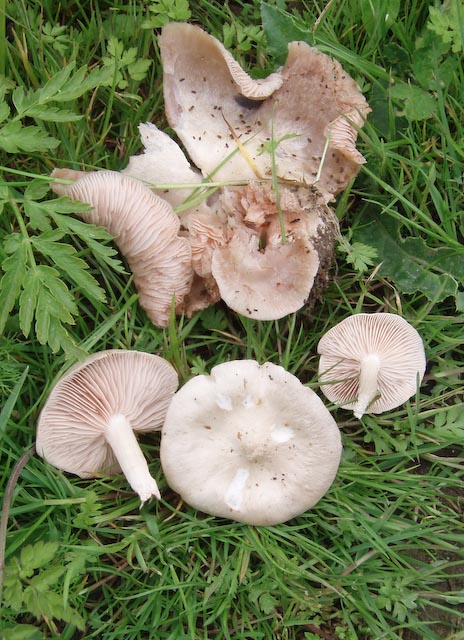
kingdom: Fungi
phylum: Basidiomycota
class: Agaricomycetes
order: Agaricales
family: Entolomataceae
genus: Entoloma
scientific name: Entoloma sepium
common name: slåen-rødblad
